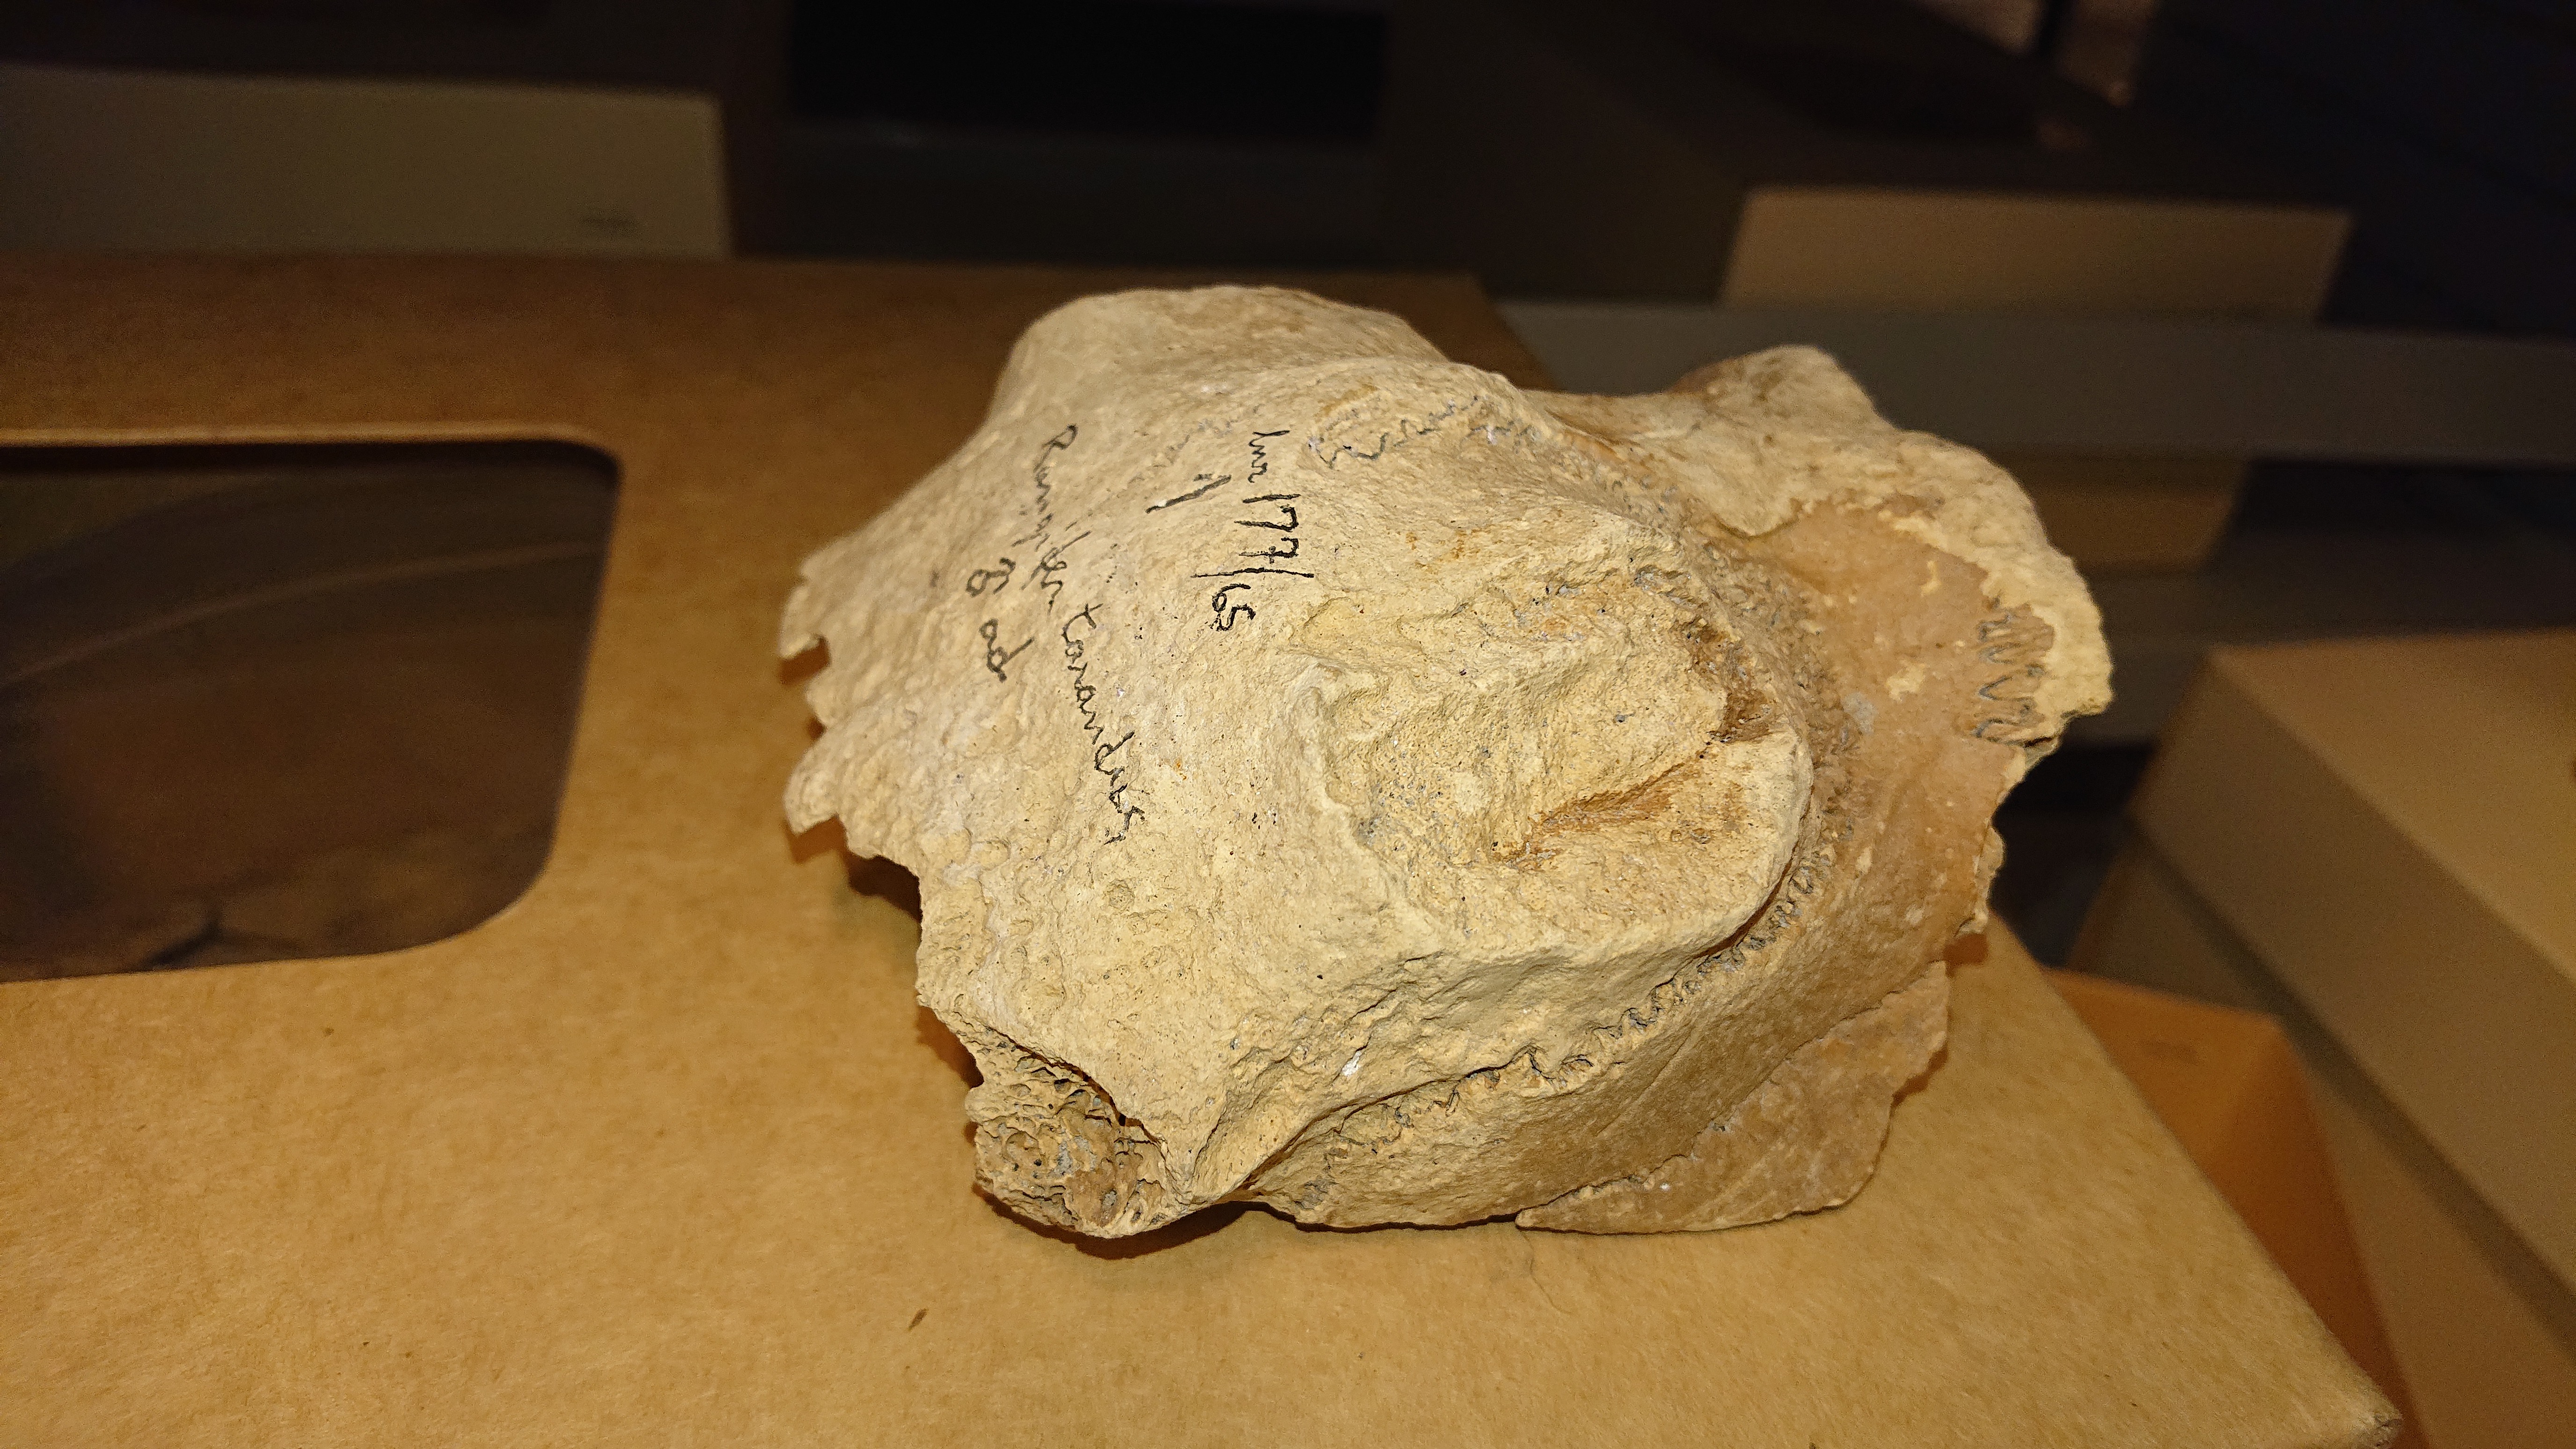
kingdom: Animalia
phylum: Chordata
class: Mammalia
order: Artiodactyla
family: Cervidae
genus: Rangifer
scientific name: Rangifer tarandus
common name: Reindeer
